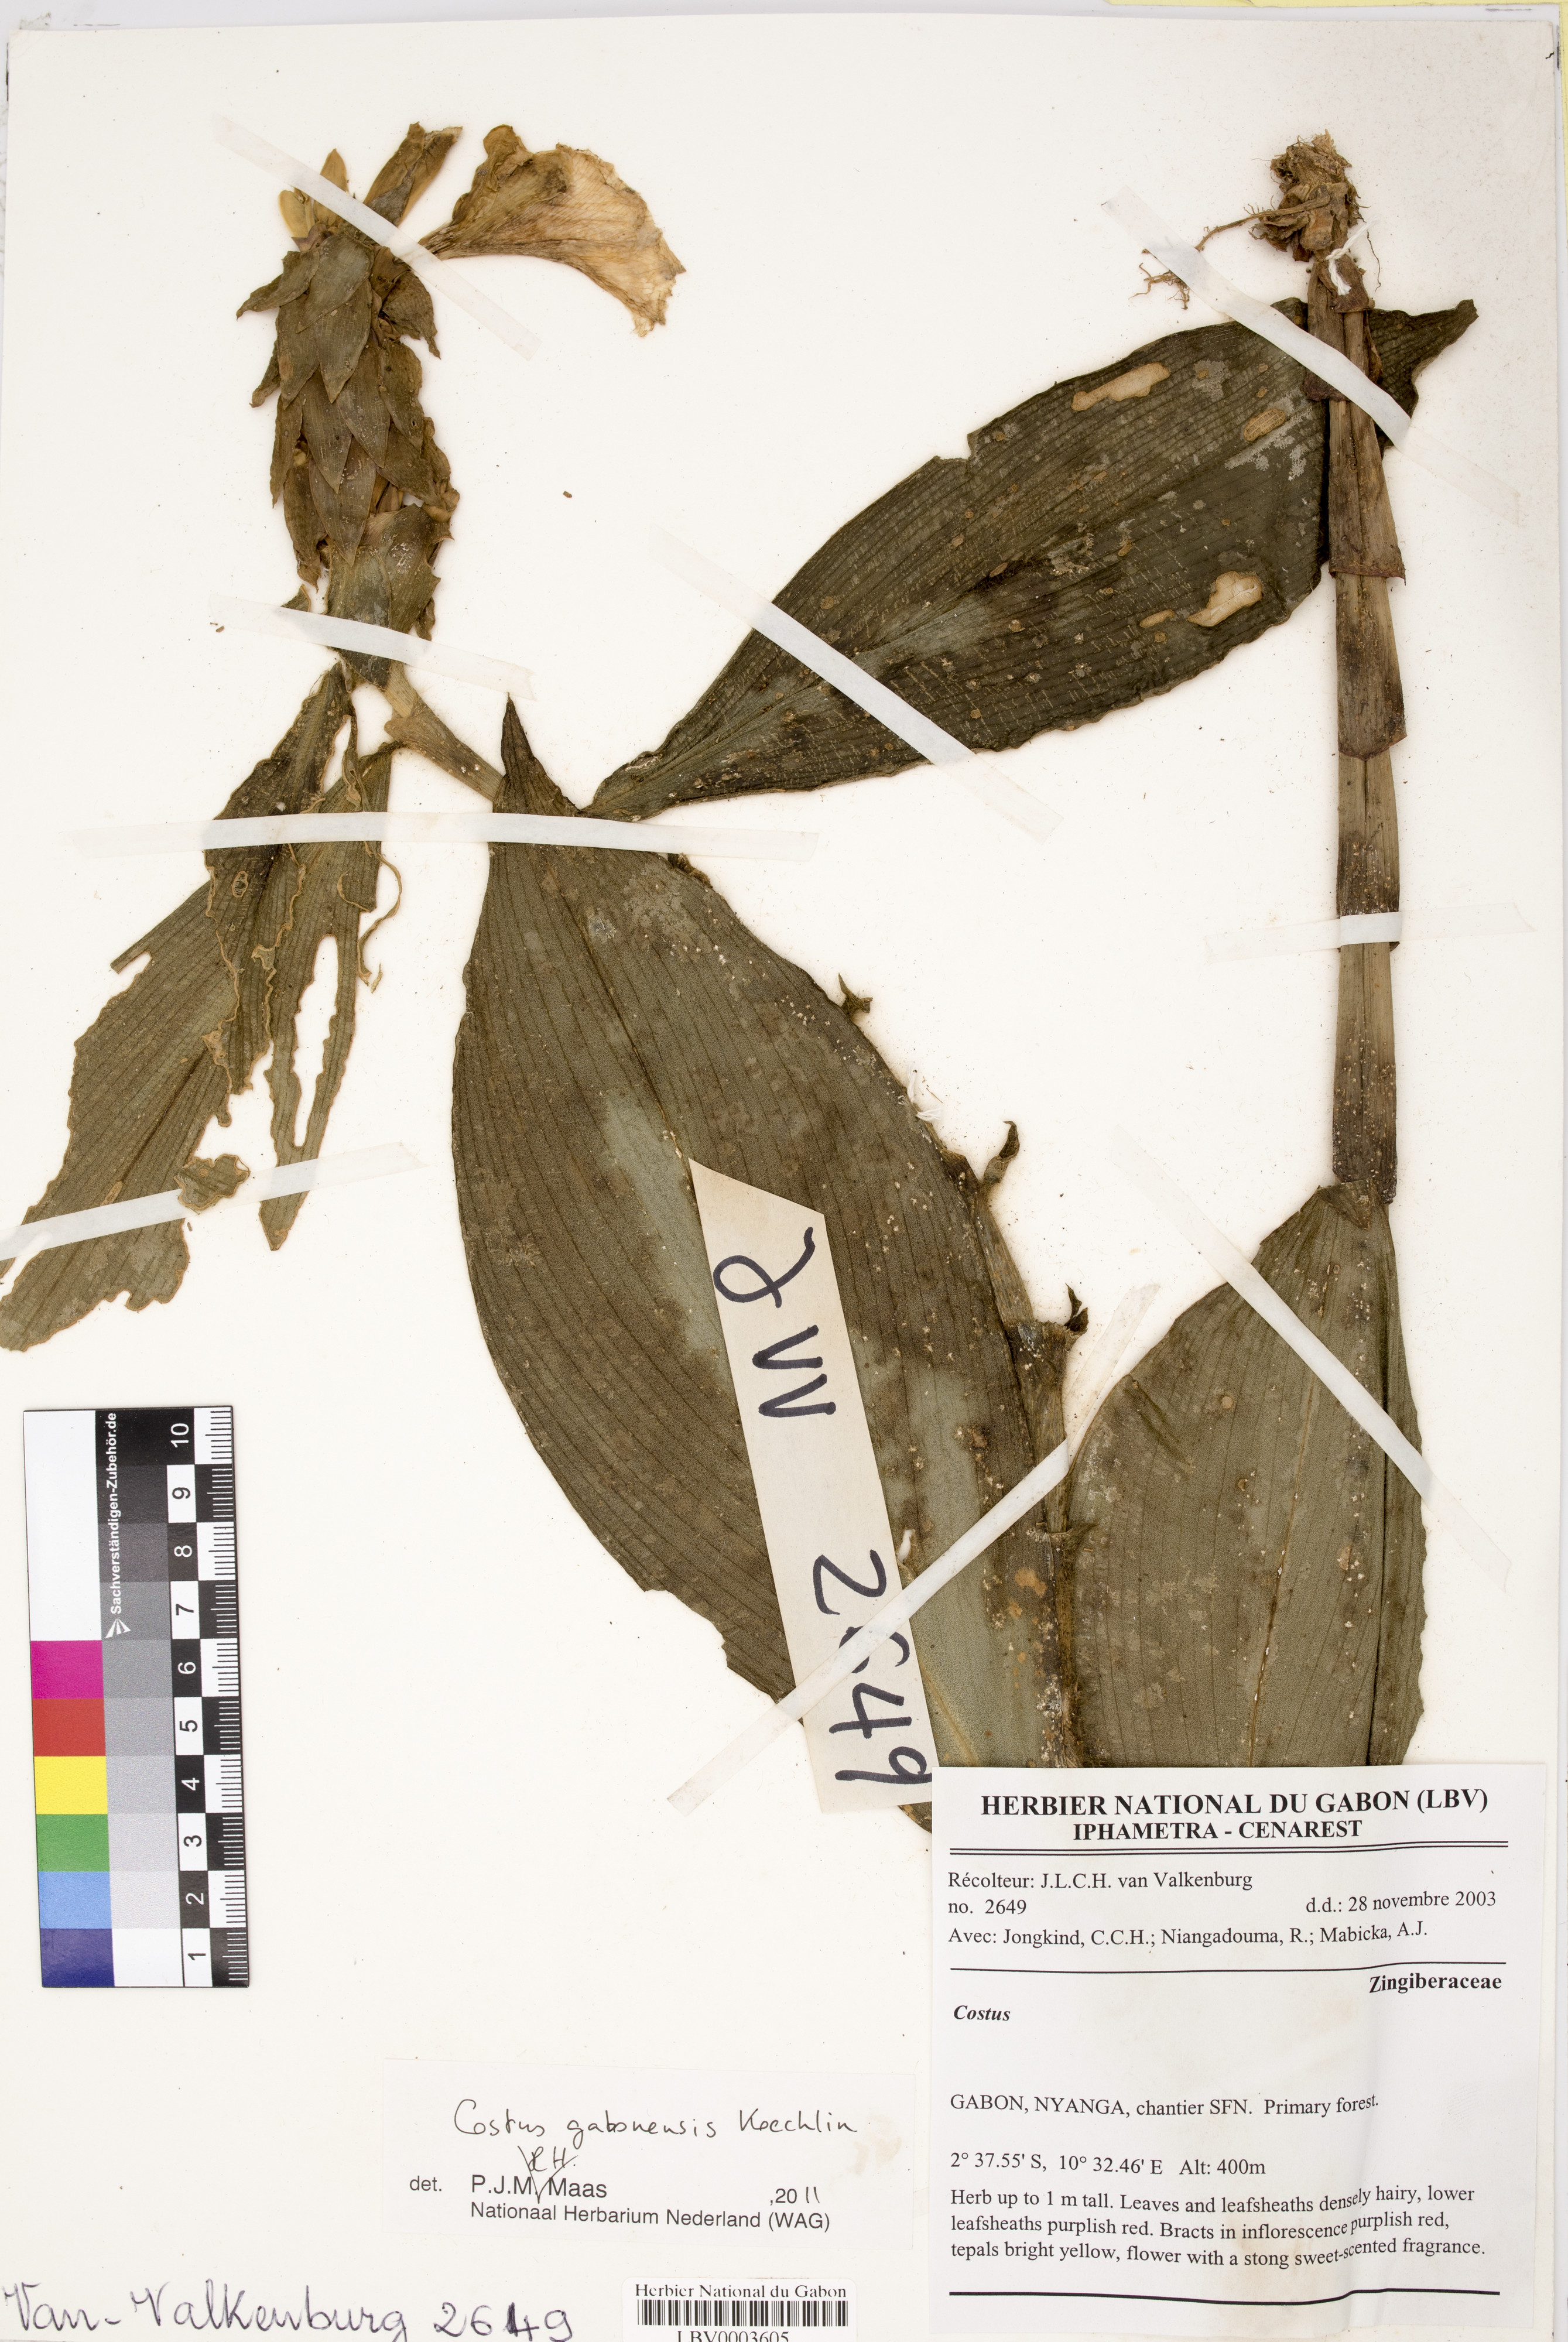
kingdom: Plantae
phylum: Tracheophyta
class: Liliopsida
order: Zingiberales
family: Costaceae
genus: Costus
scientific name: Costus gabonensis
